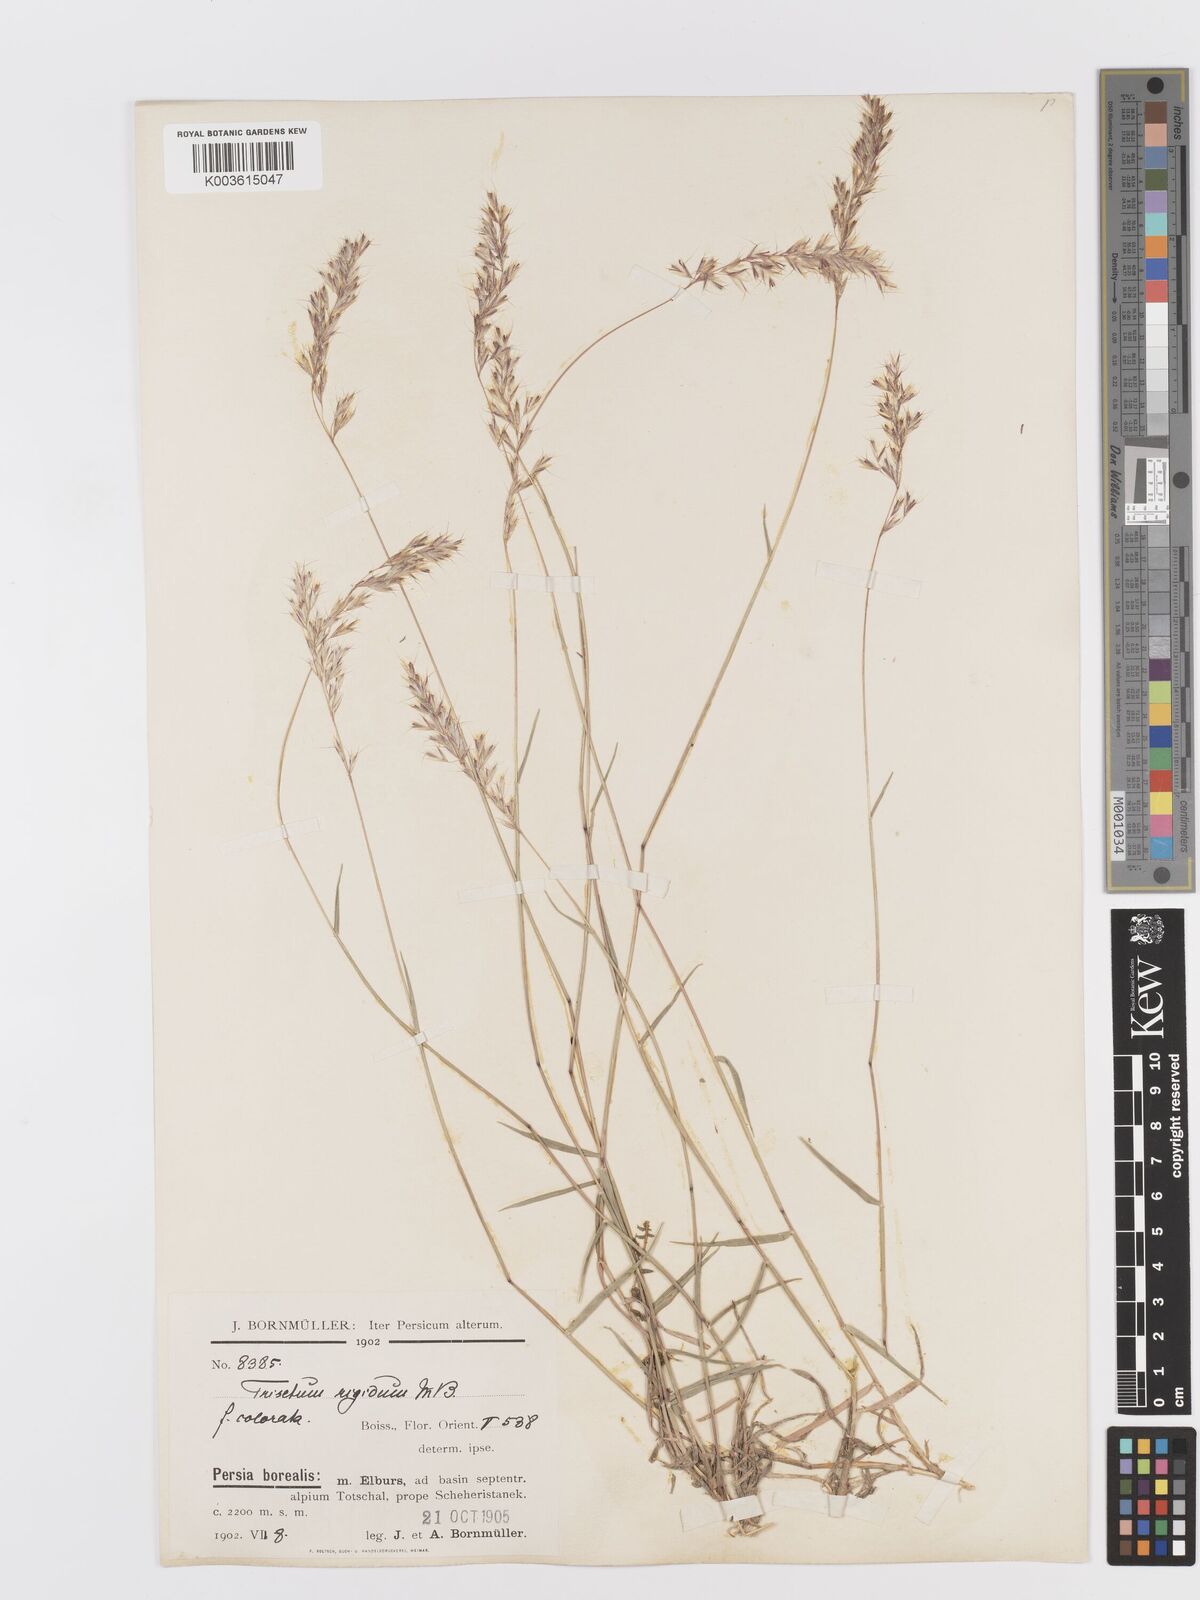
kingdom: Plantae
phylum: Tracheophyta
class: Liliopsida
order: Poales
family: Poaceae
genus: Trisetum
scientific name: Trisetum rigidum
